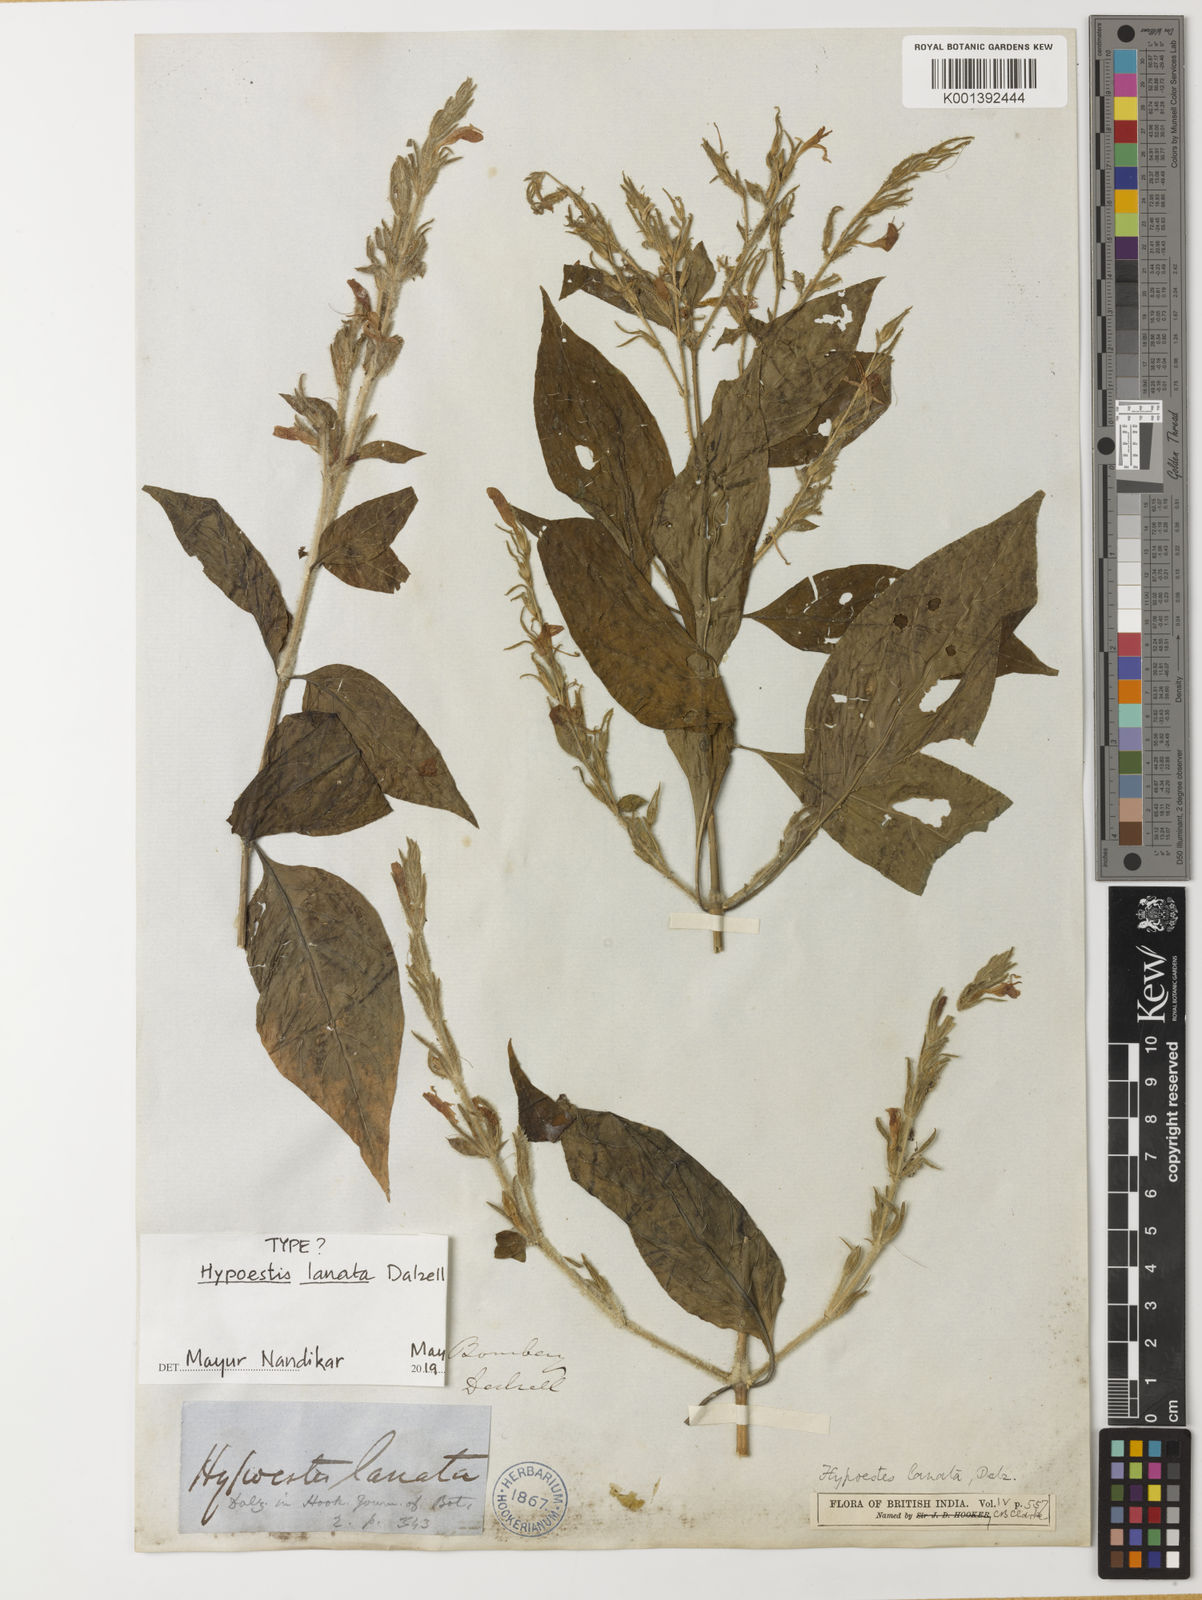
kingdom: Plantae
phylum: Tracheophyta
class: Magnoliopsida
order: Lamiales
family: Acanthaceae
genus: Hypoestes
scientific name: Hypoestes lanata
